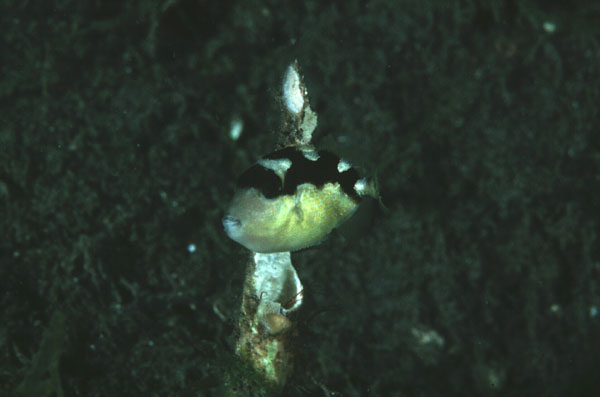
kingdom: Animalia
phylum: Chordata
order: Tetraodontiformes
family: Balistidae
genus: Abalistes
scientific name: Abalistes stellaris
